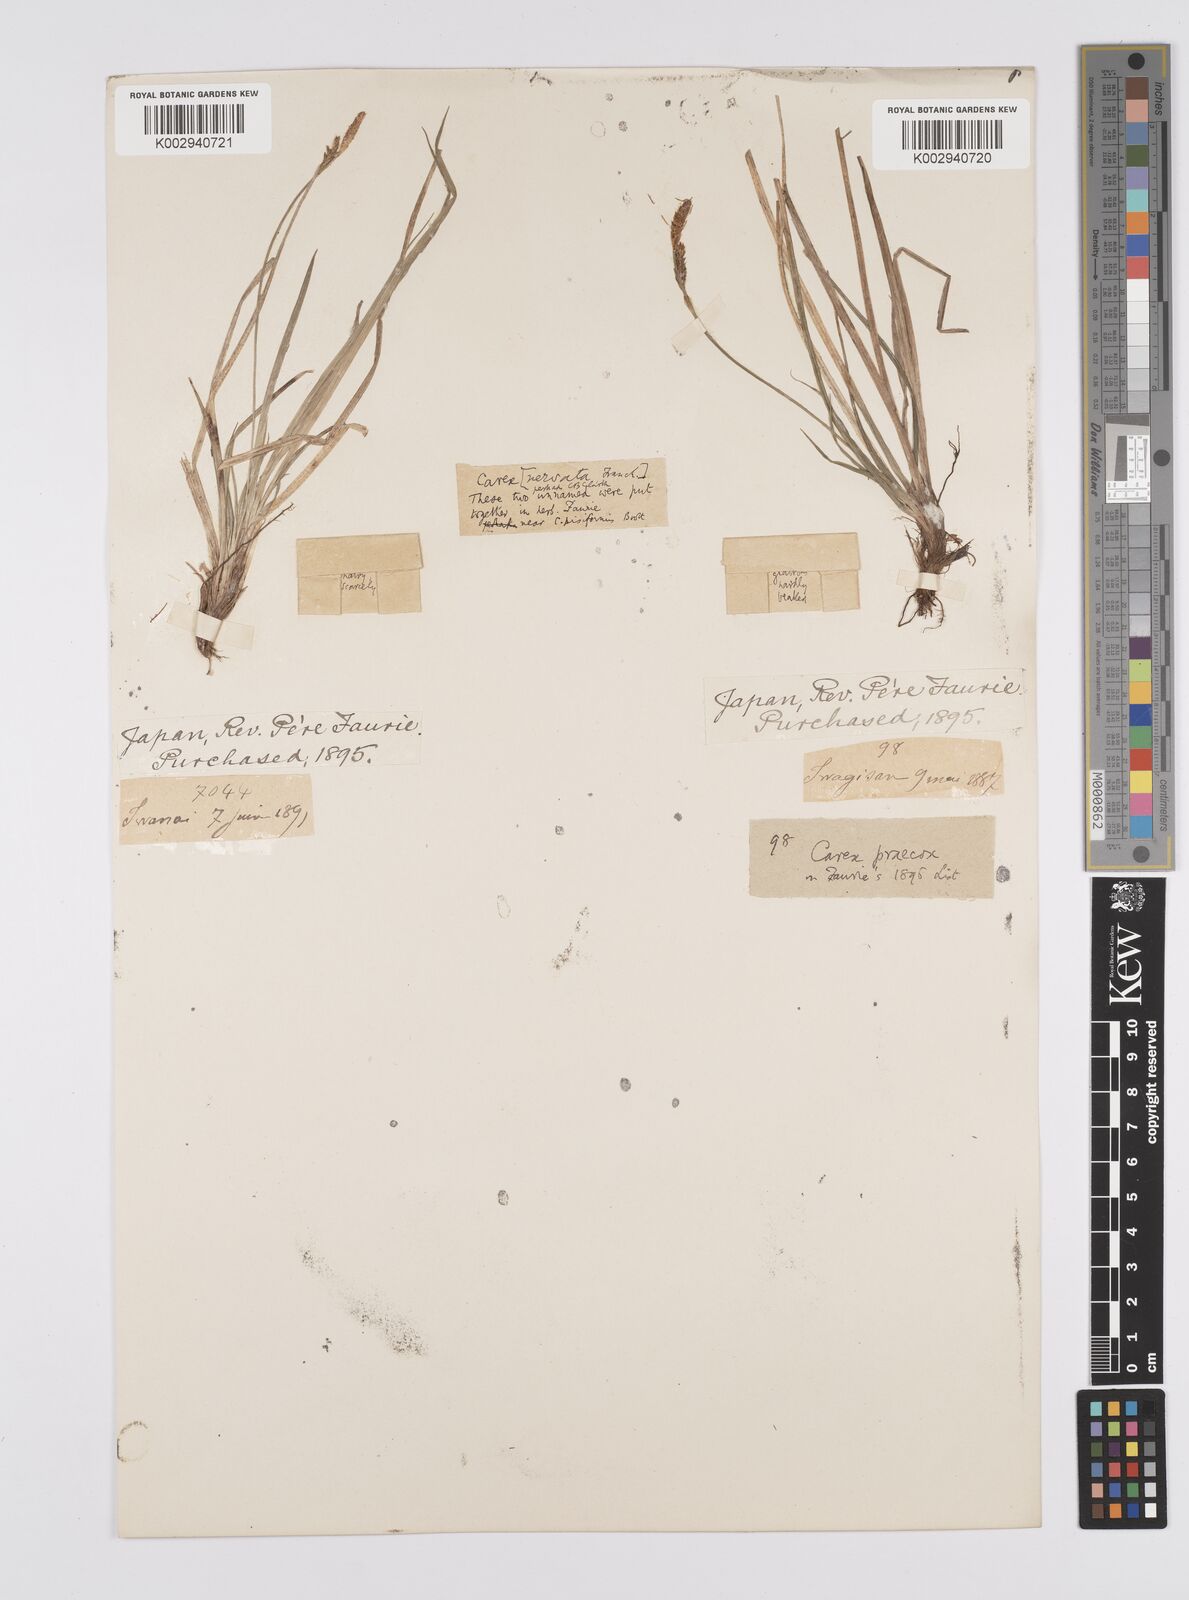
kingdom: Plantae
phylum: Tracheophyta
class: Liliopsida
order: Poales
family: Cyperaceae
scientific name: Cyperaceae
